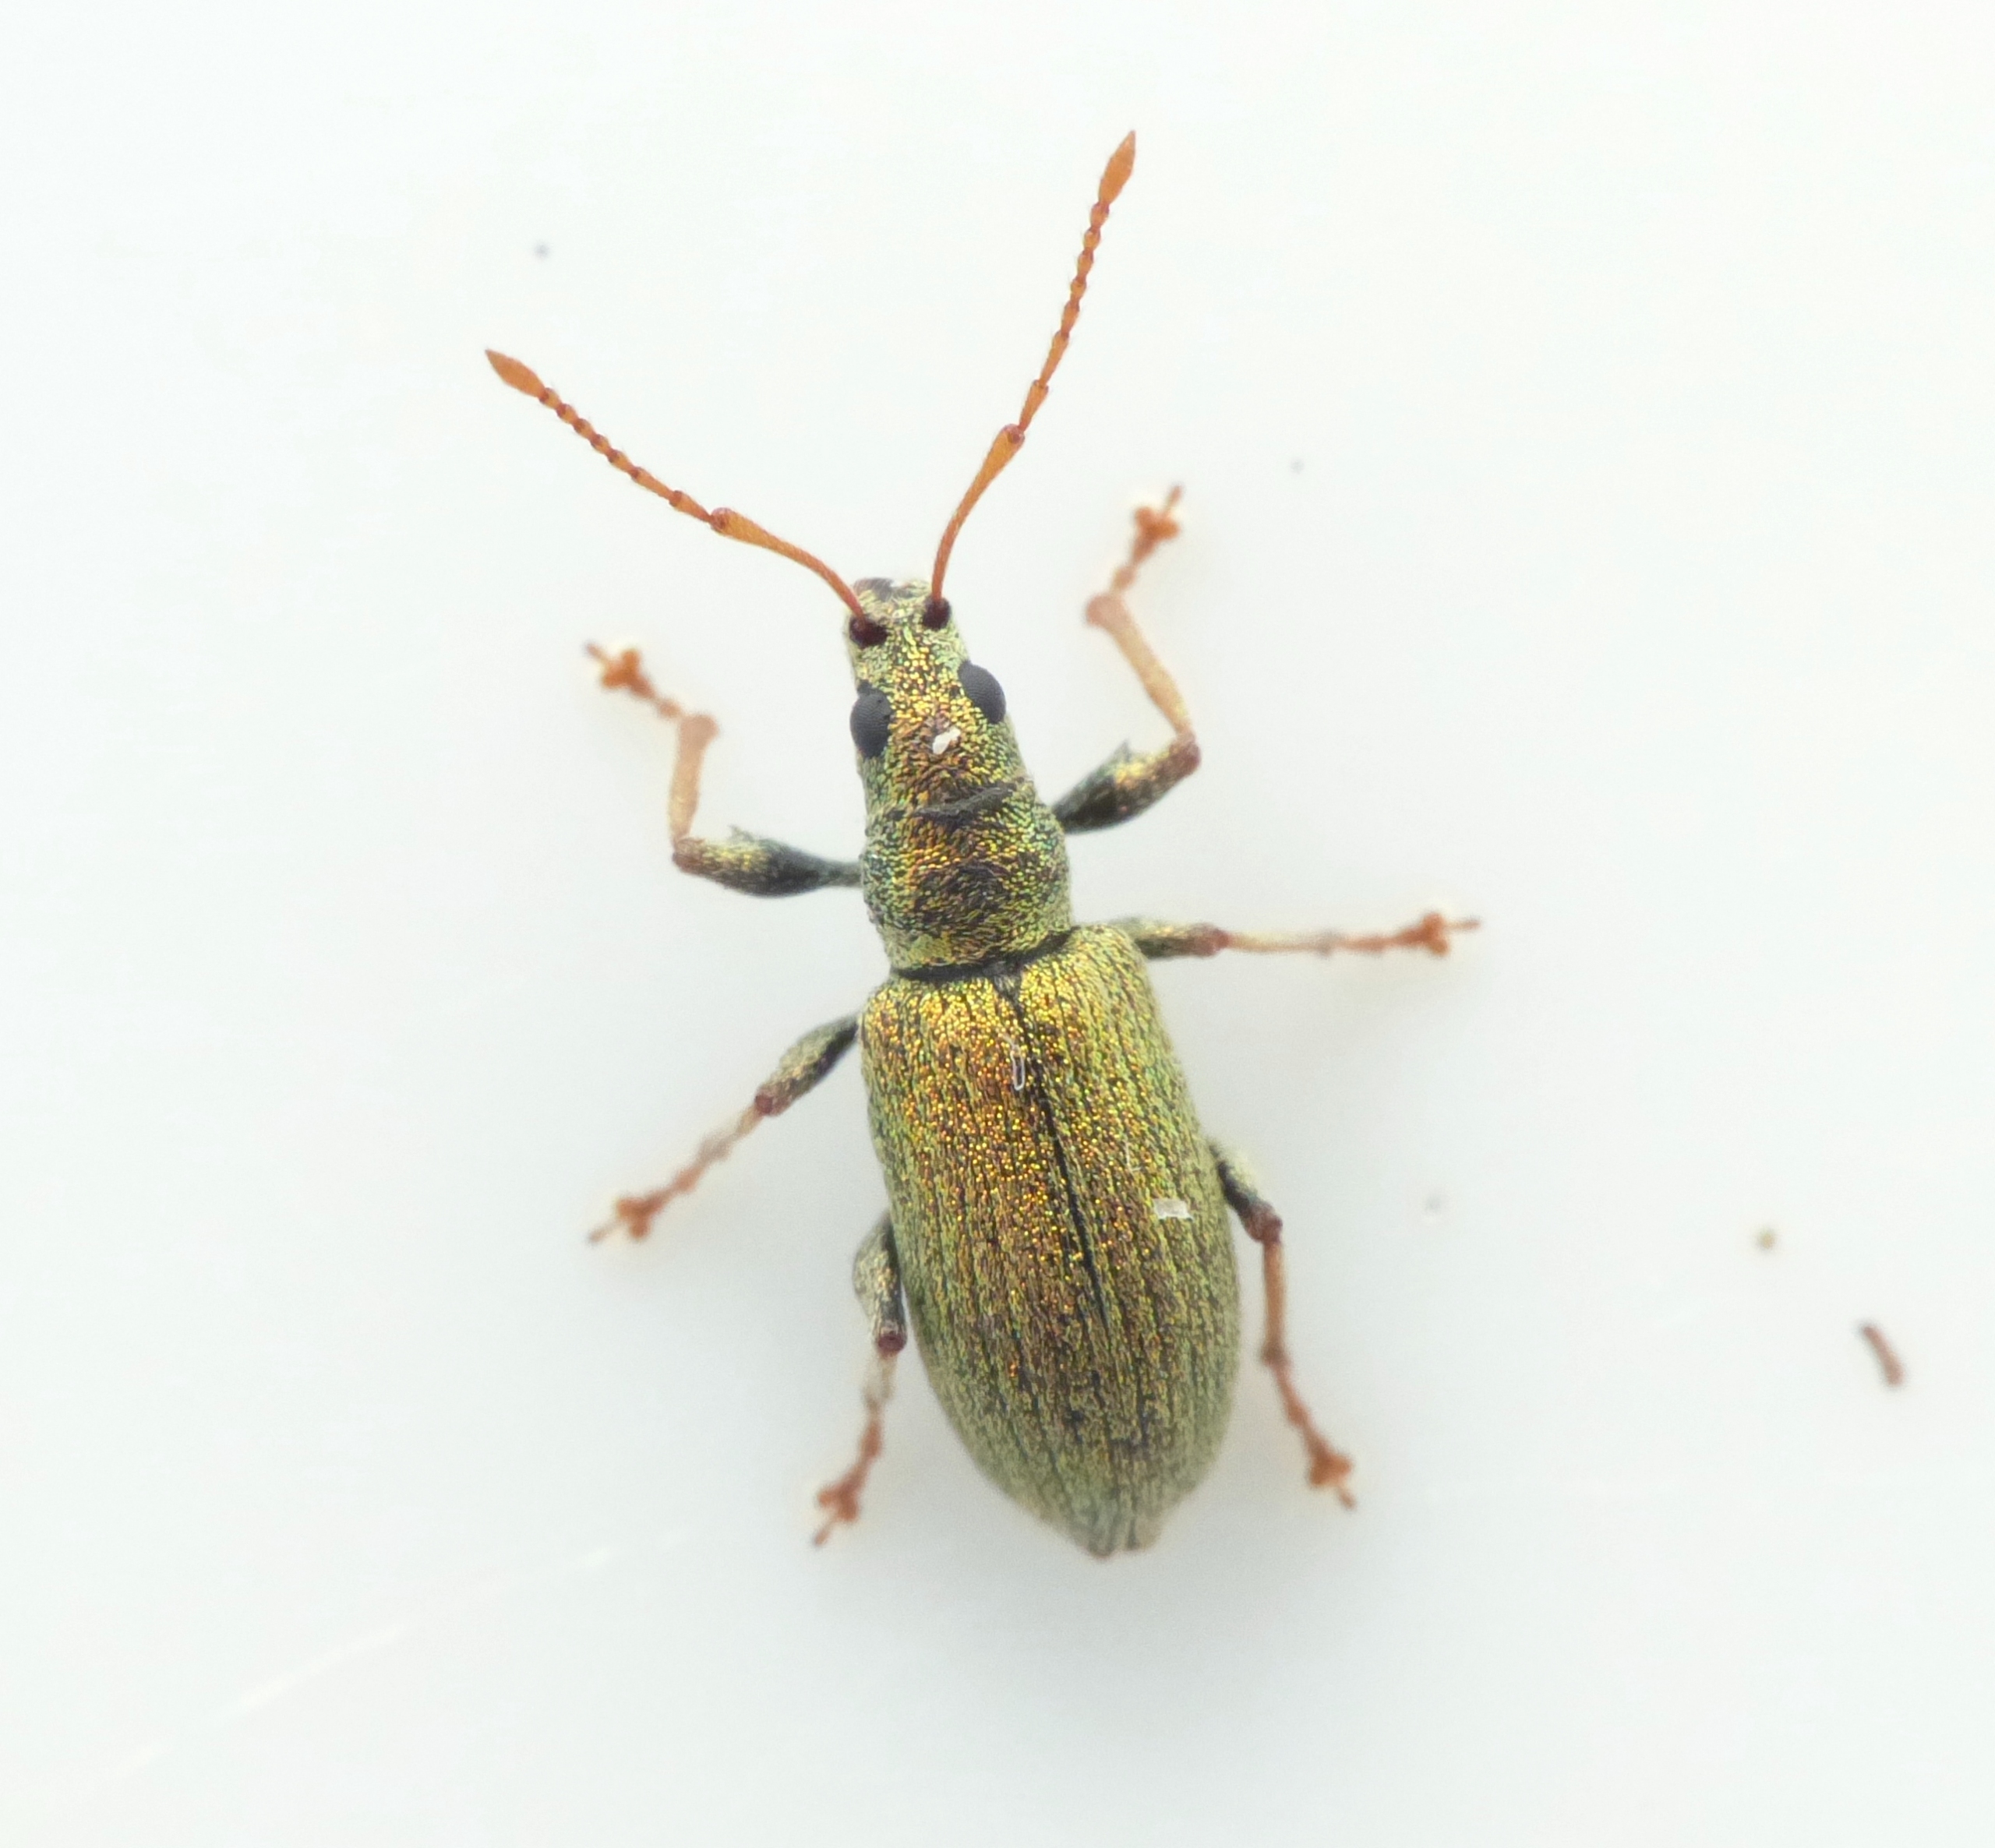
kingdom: Animalia
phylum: Arthropoda
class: Insecta
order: Coleoptera
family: Curculionidae
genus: Phyllobius
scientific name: Phyllobius argentatus
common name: Bøgeløvsnudebille
